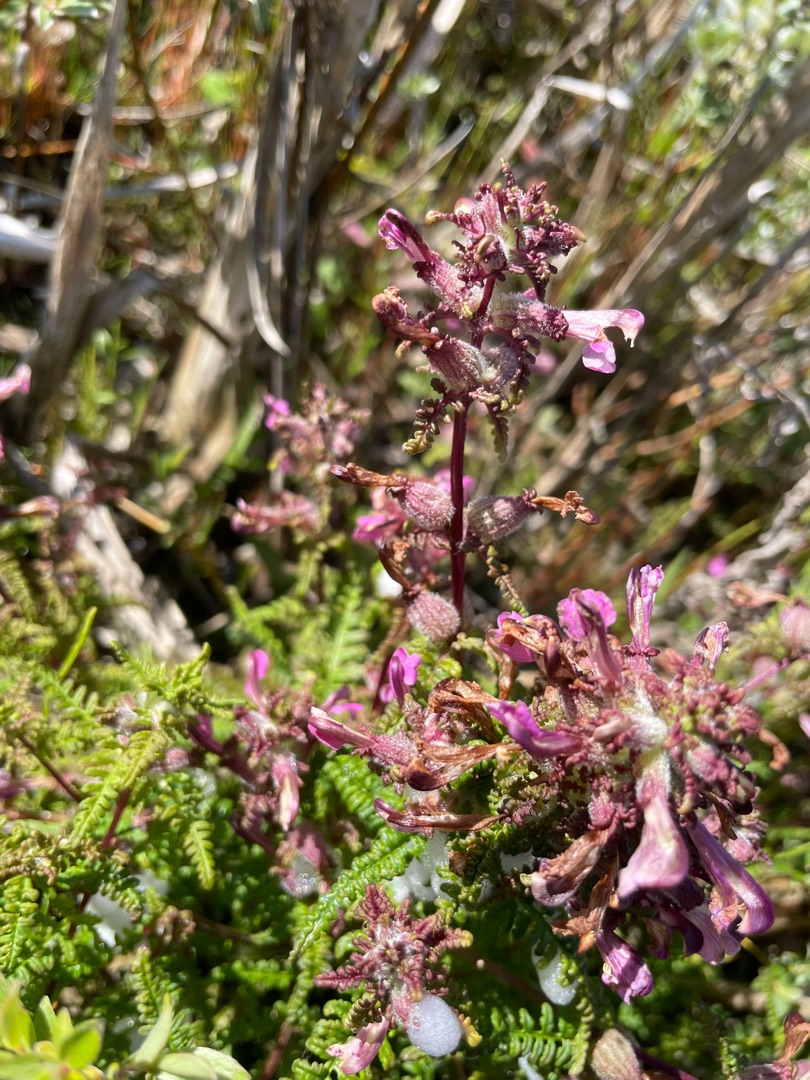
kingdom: Plantae
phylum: Tracheophyta
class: Magnoliopsida
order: Lamiales
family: Orobanchaceae
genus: Pedicularis
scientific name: Pedicularis palustris
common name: Eng-troldurt
